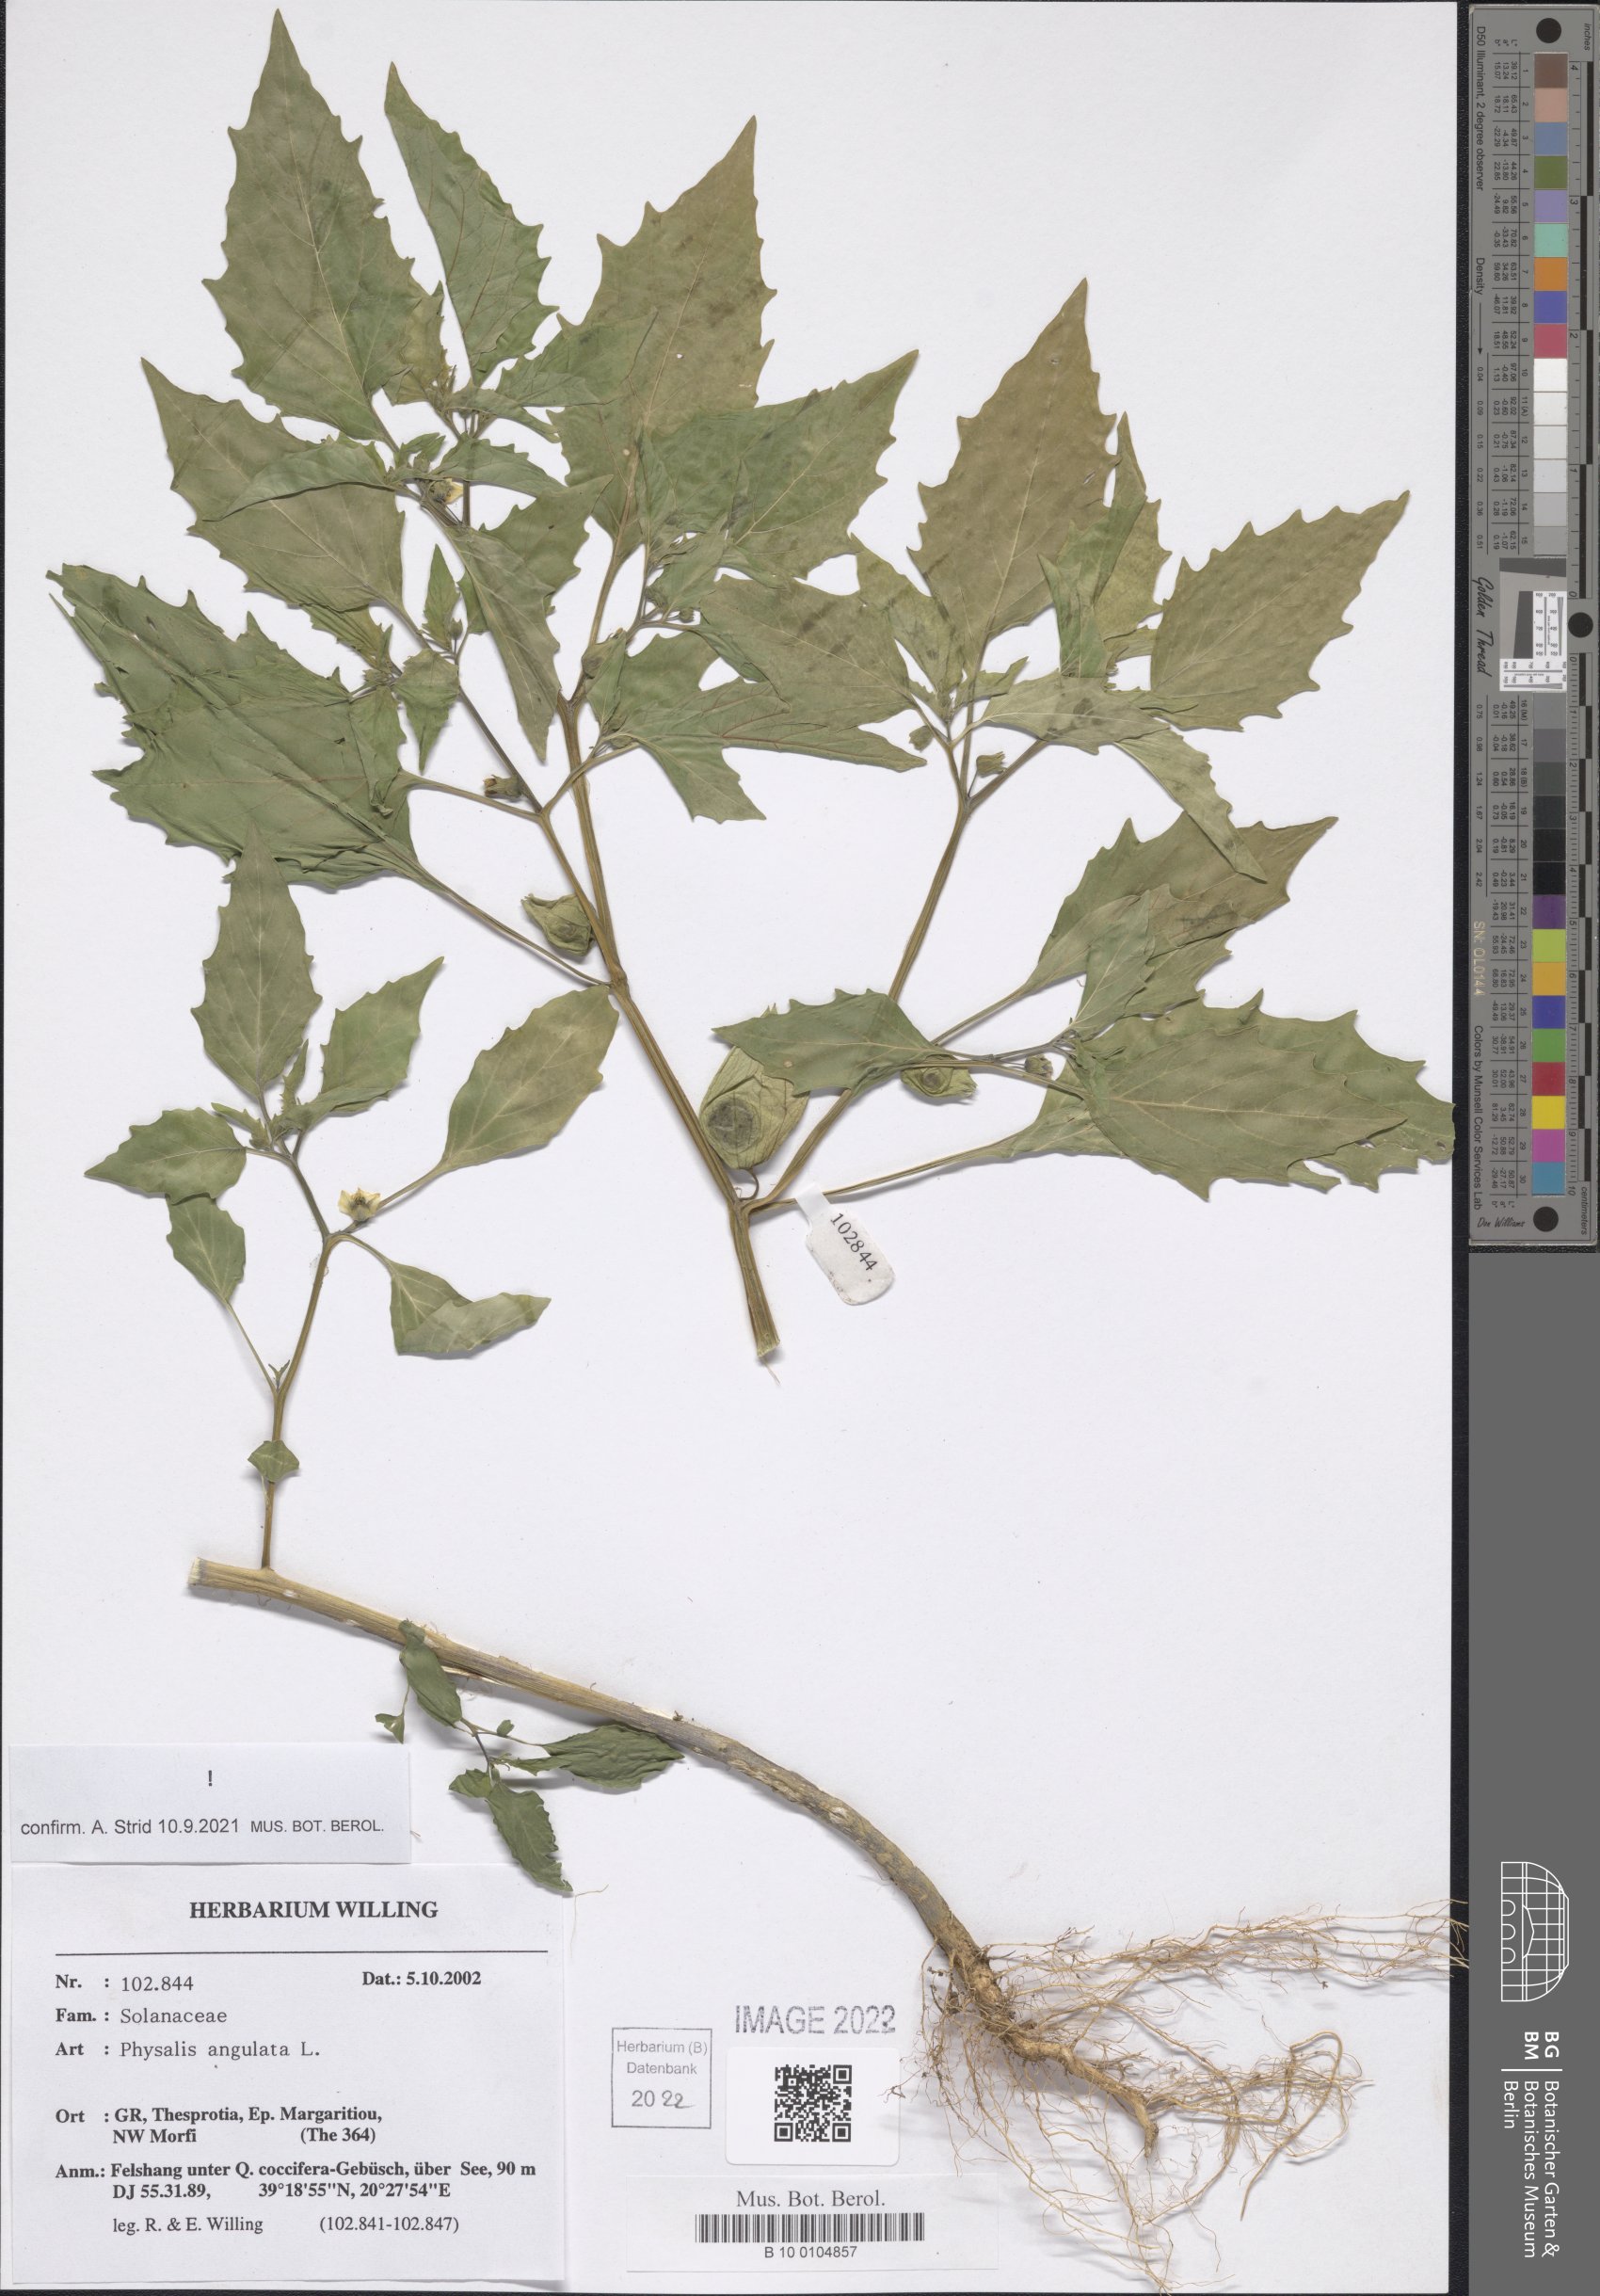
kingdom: Plantae
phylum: Tracheophyta
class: Magnoliopsida
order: Solanales
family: Solanaceae
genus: Physalis
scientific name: Physalis angulata
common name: Angular winter-cherry
